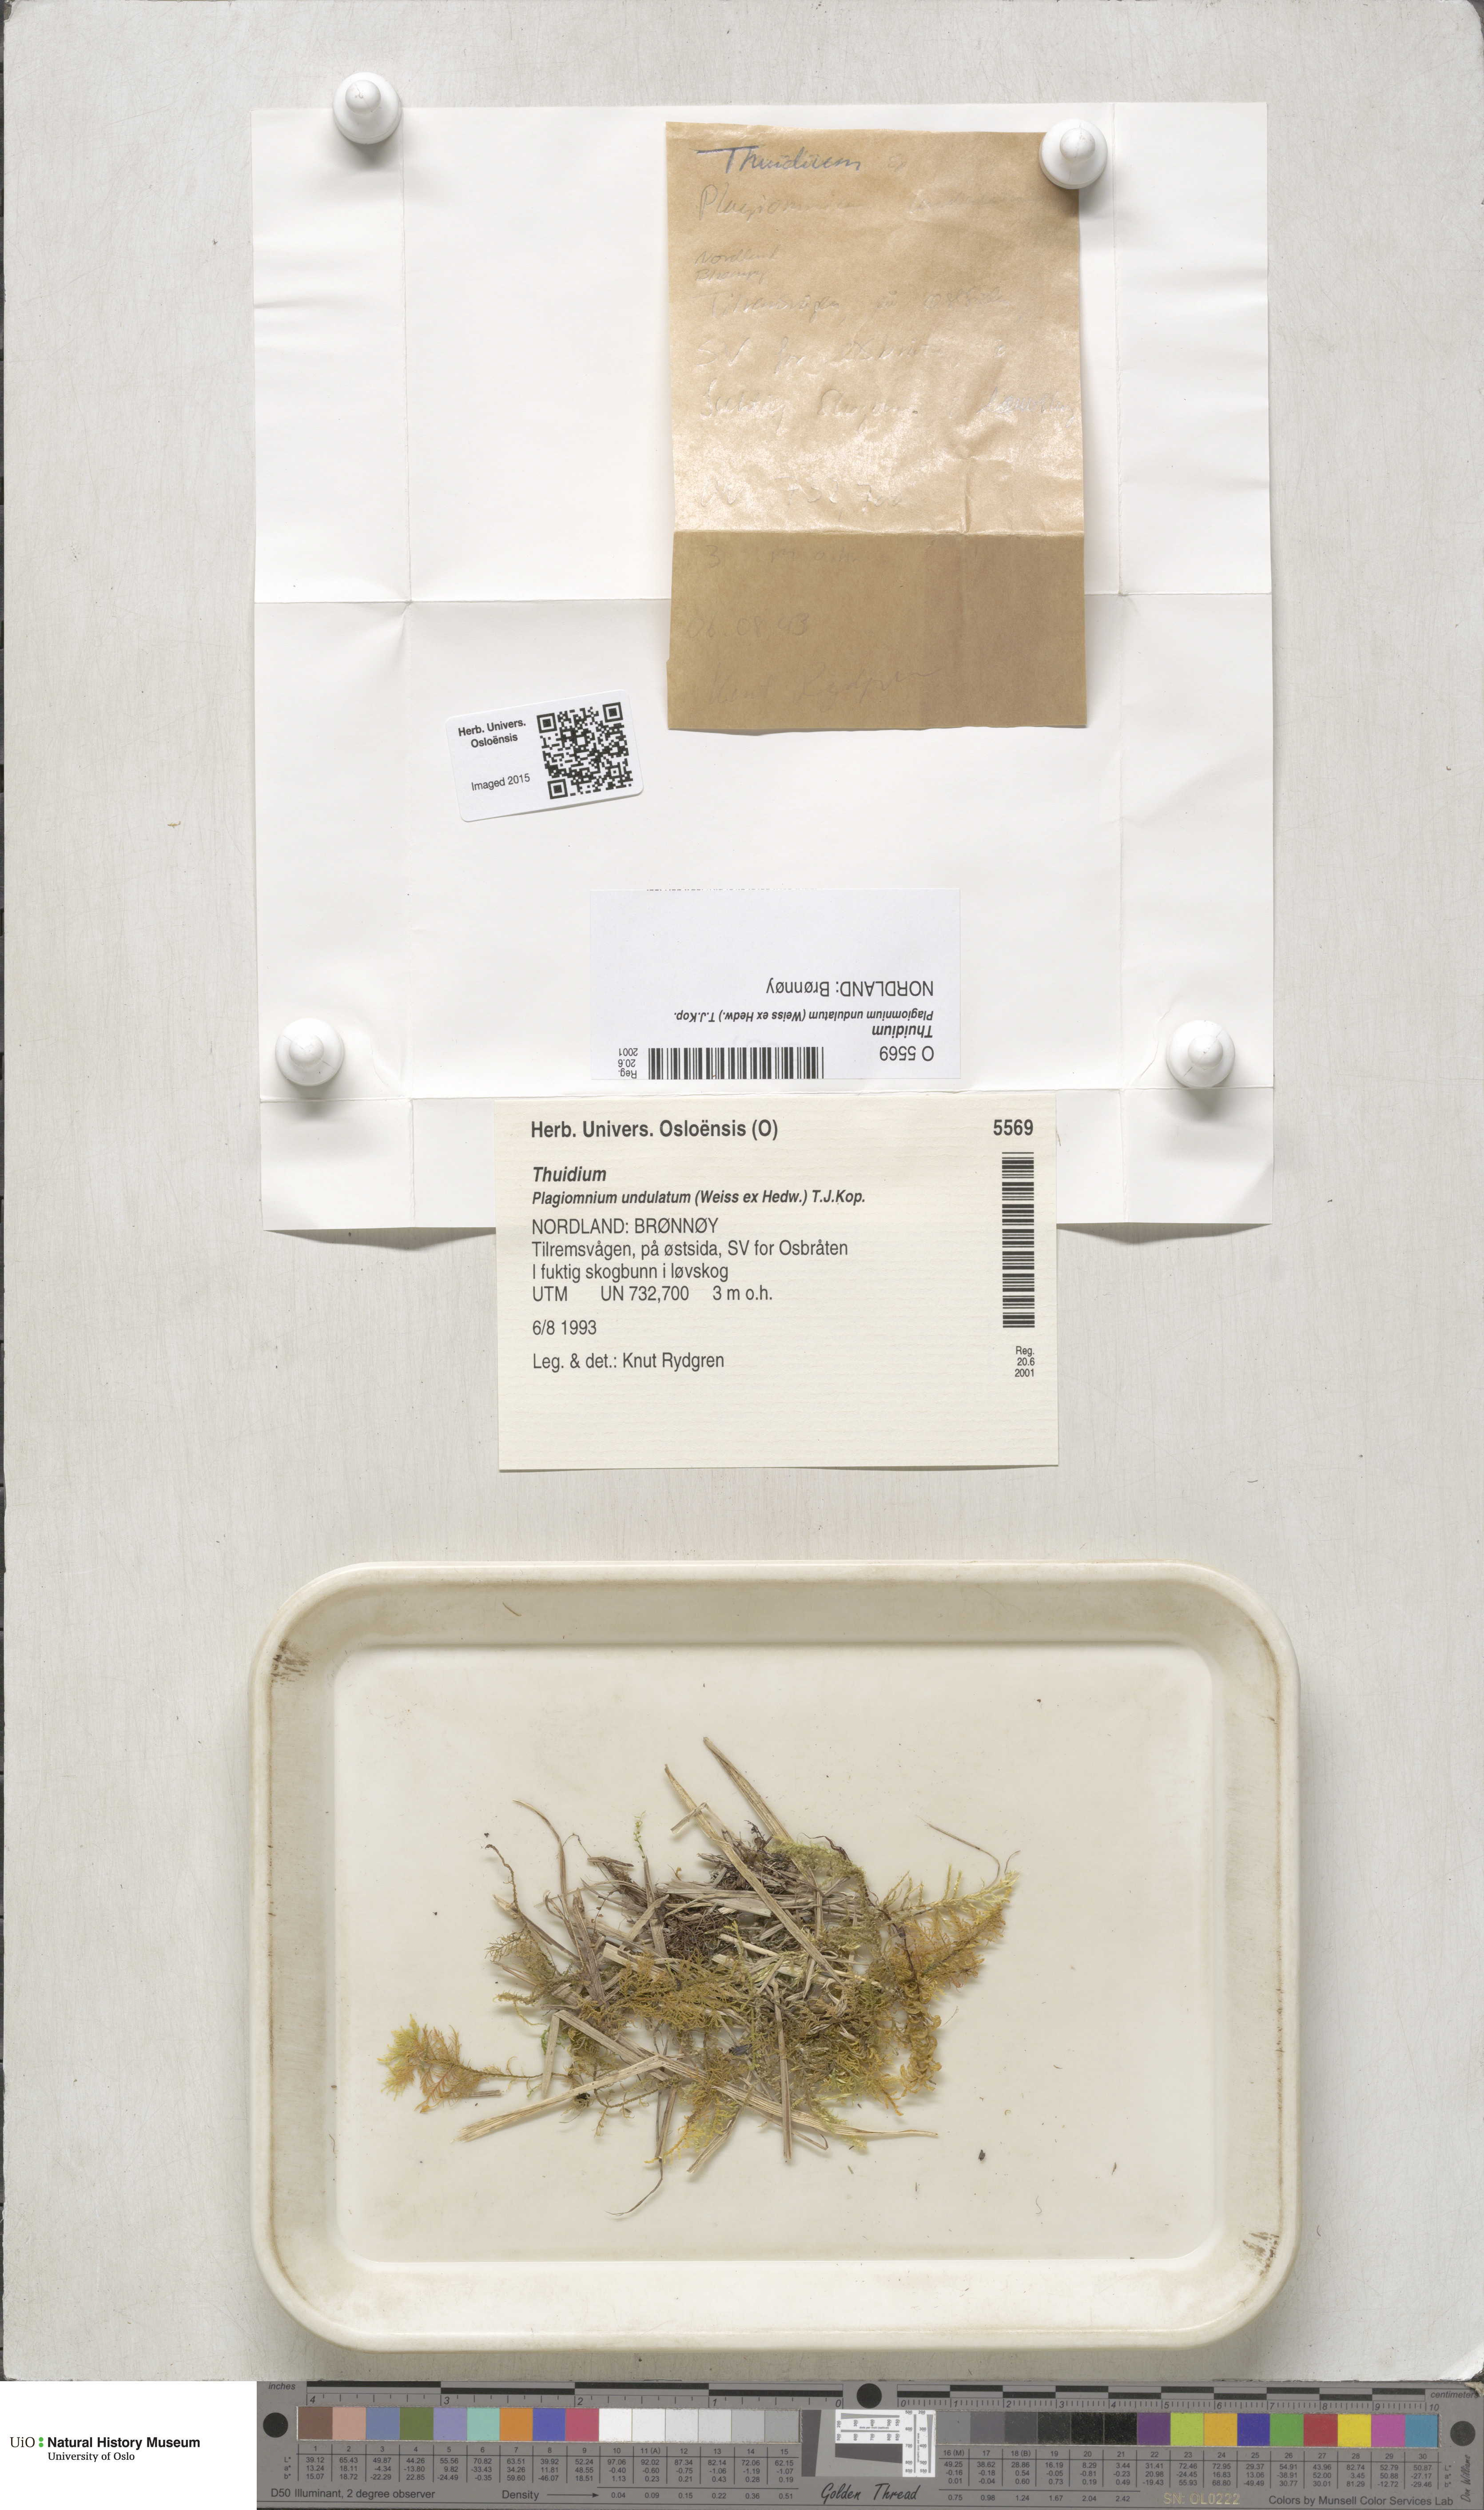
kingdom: Plantae
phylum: Bryophyta
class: Bryopsida
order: Hypnales
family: Thuidiaceae
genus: Thuidium
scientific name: Thuidium
